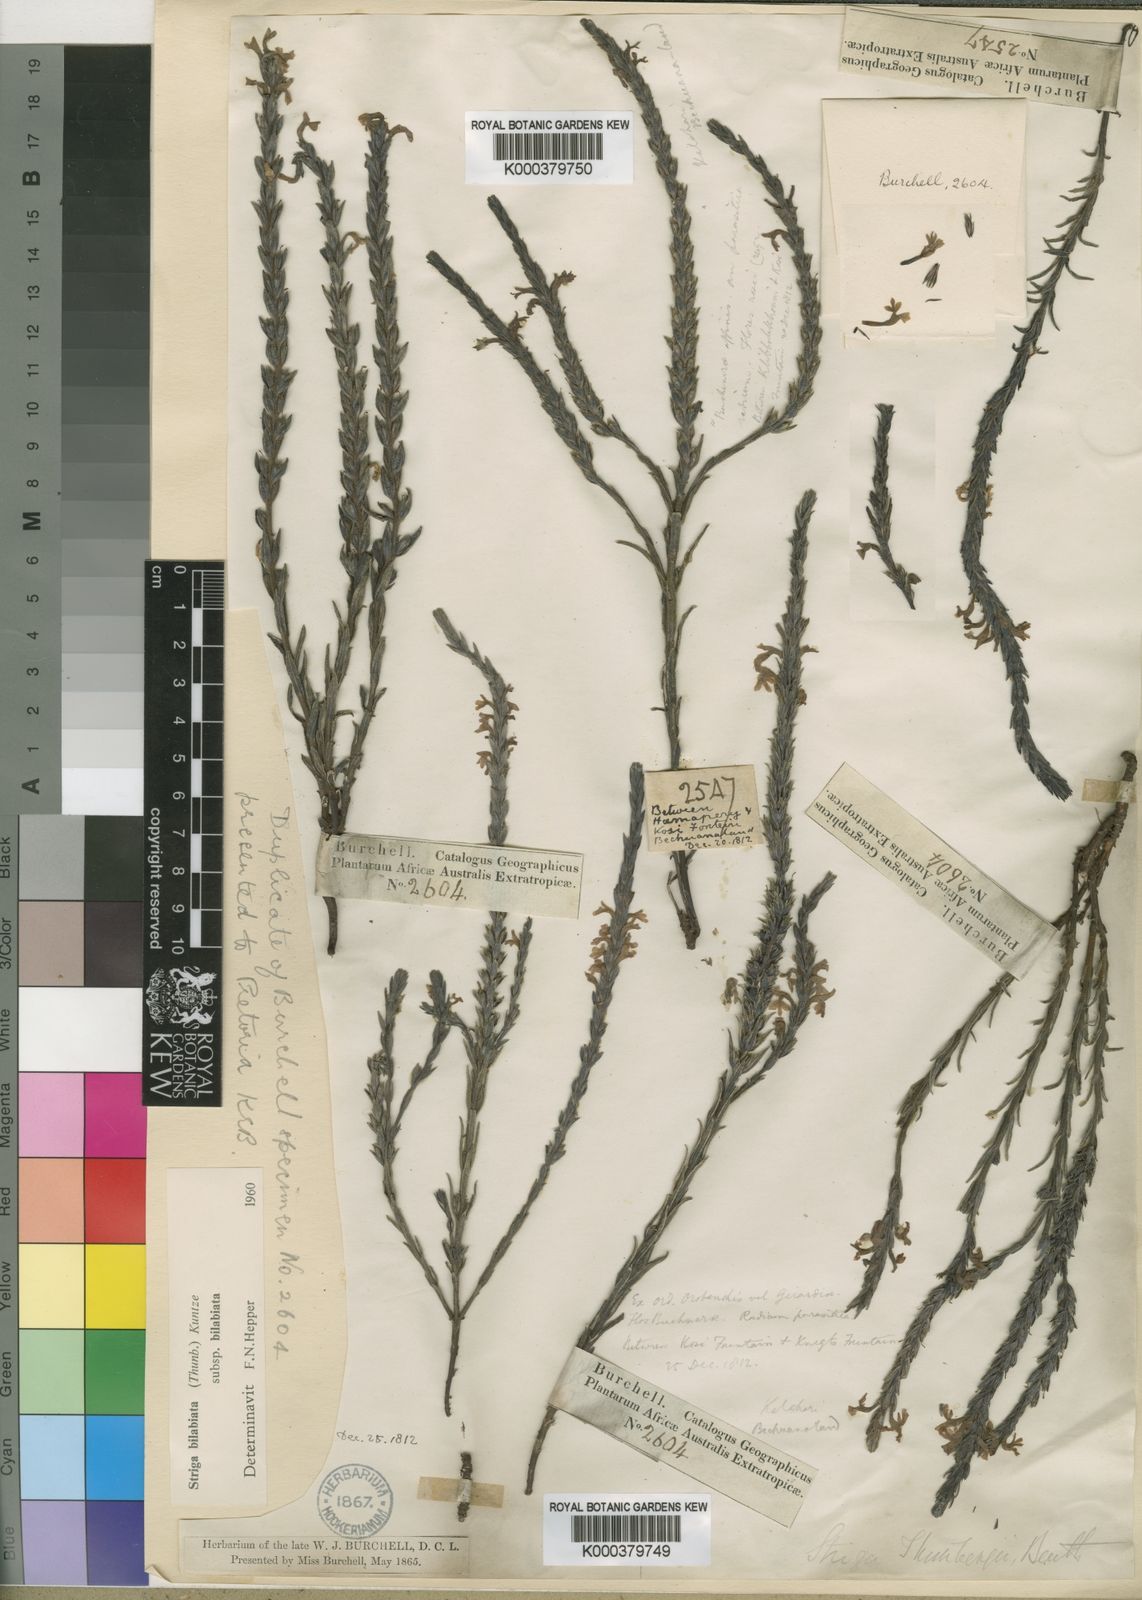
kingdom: Plantae
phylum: Tracheophyta
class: Magnoliopsida
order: Lamiales
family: Orobanchaceae
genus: Striga
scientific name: Striga bilabiata
